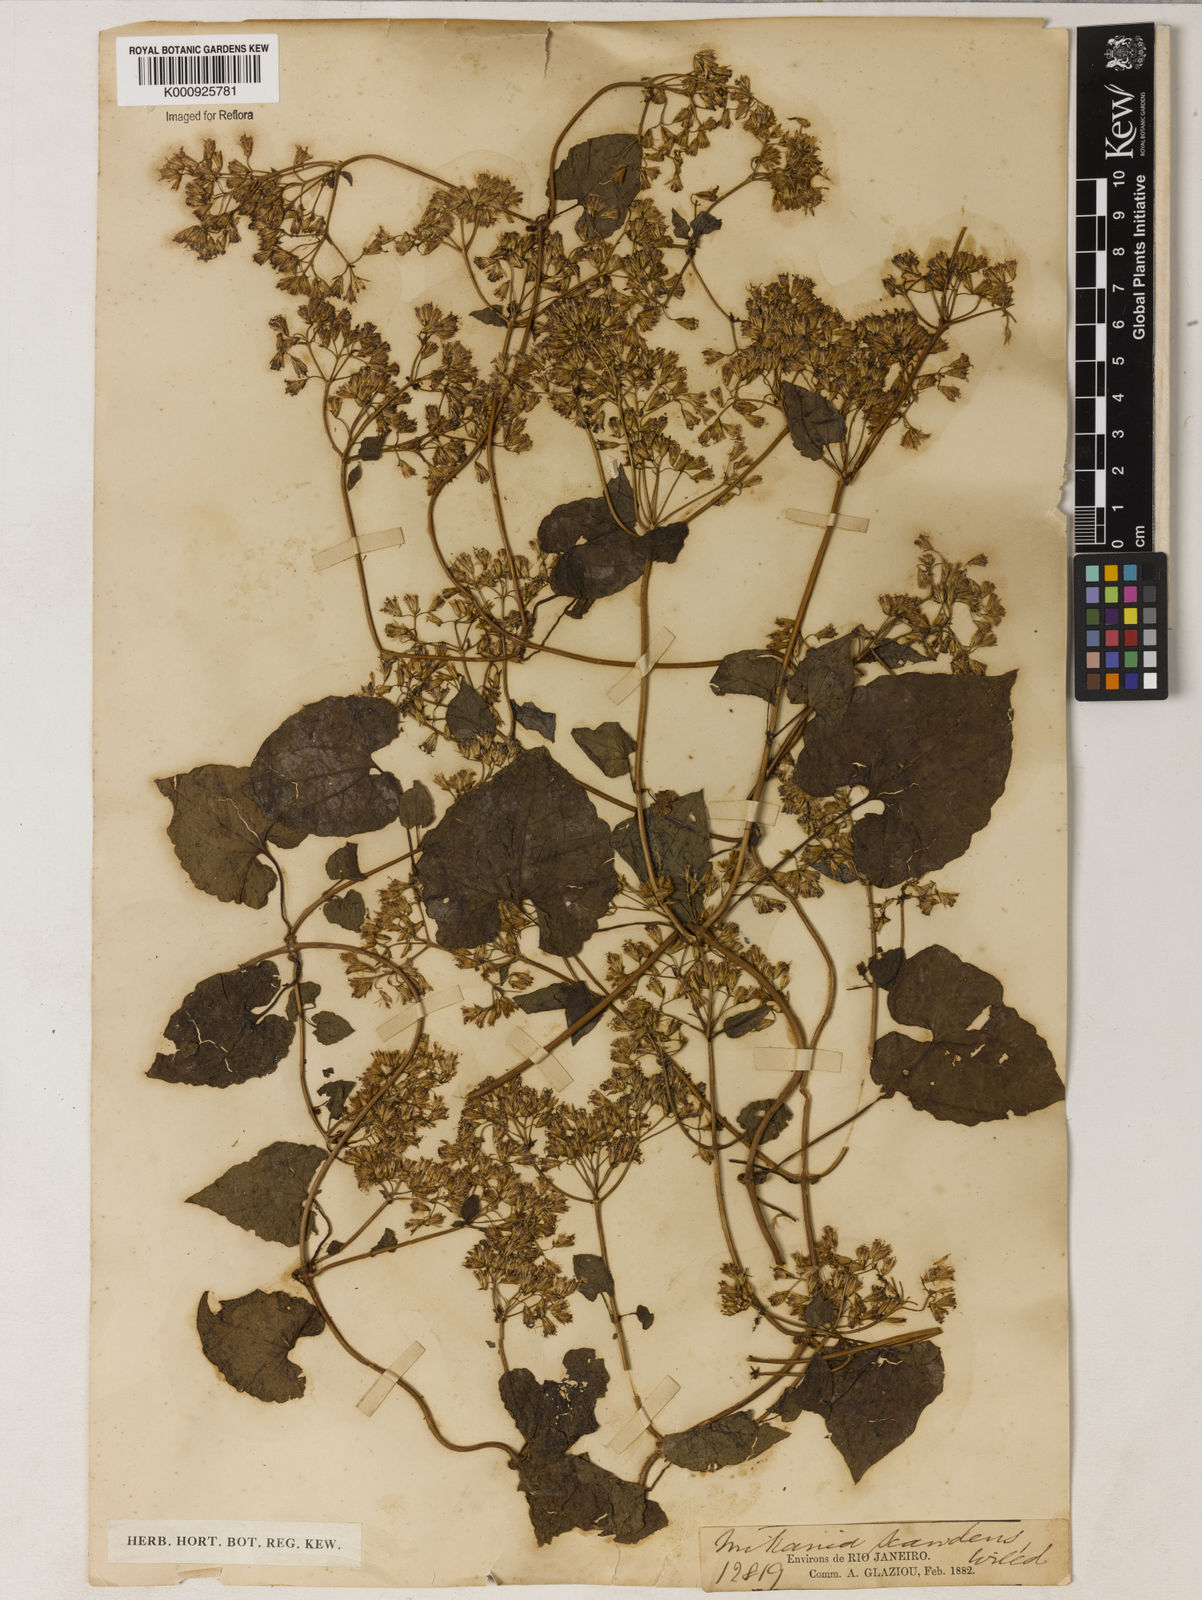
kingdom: Plantae
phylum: Tracheophyta
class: Magnoliopsida
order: Asterales
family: Asteraceae
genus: Mikania
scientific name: Mikania
